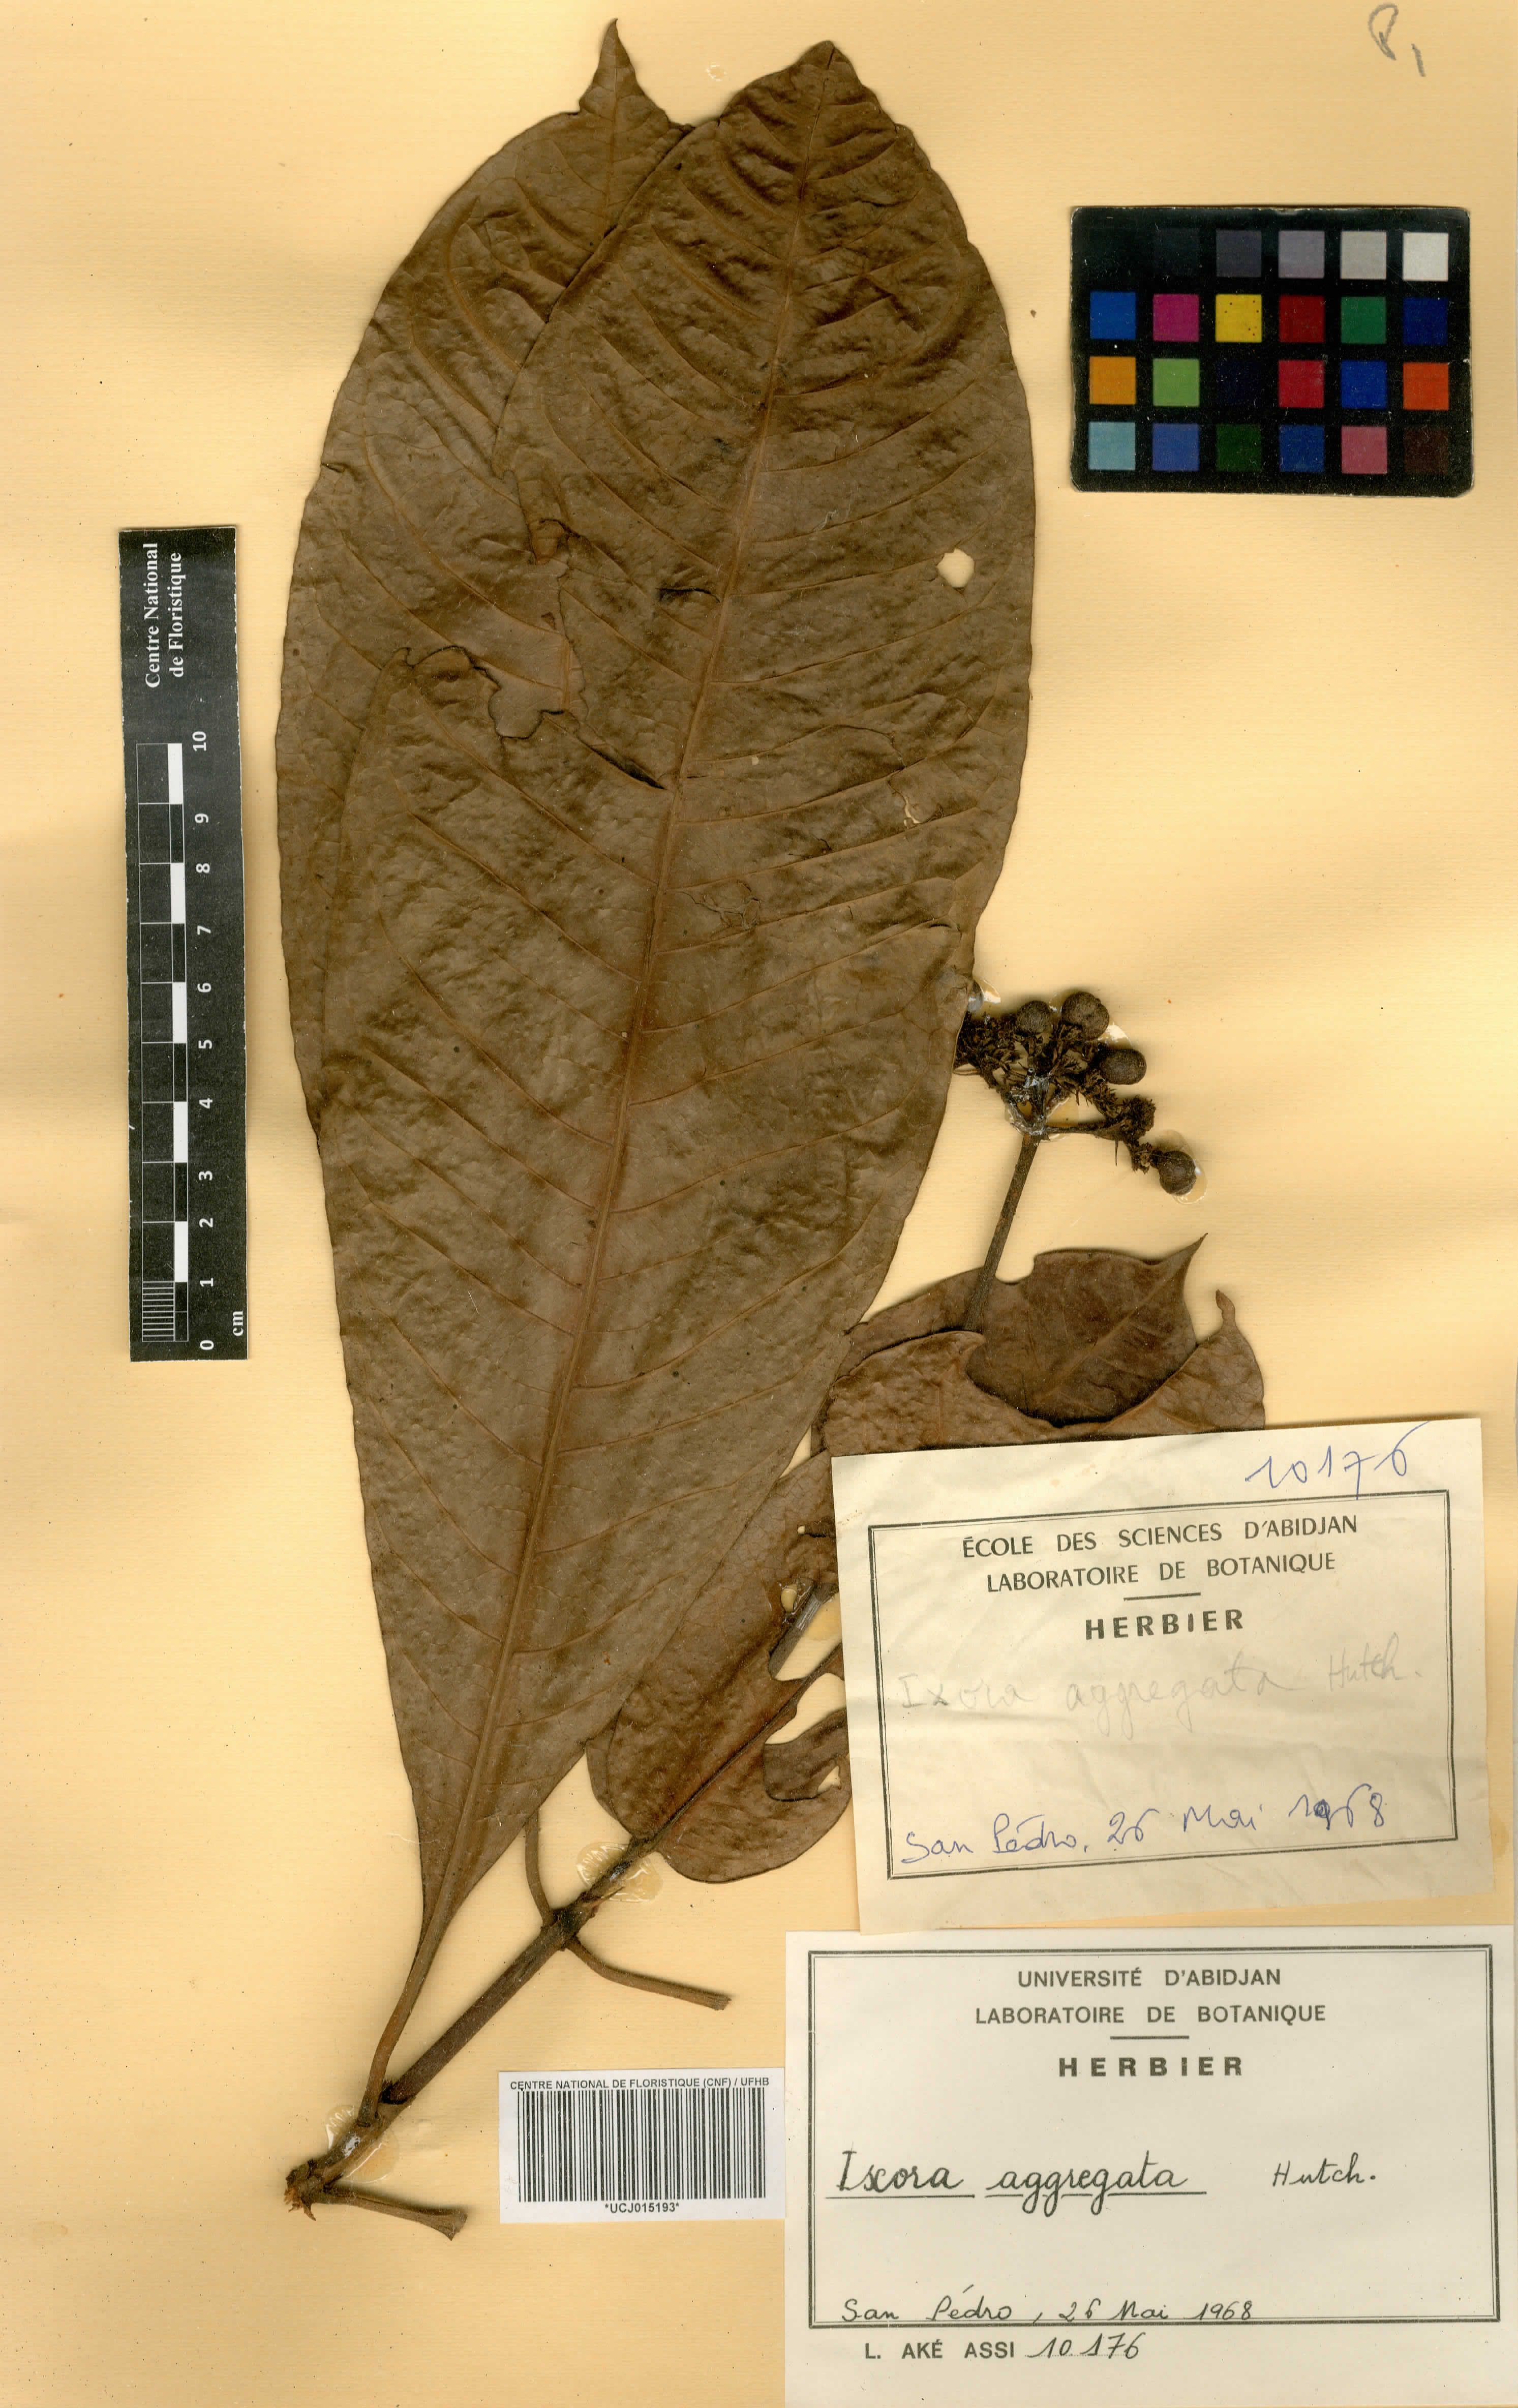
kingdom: Plantae
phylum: Tracheophyta
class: Magnoliopsida
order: Gentianales
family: Rubiaceae
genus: Ixora
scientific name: Ixora aggregata
